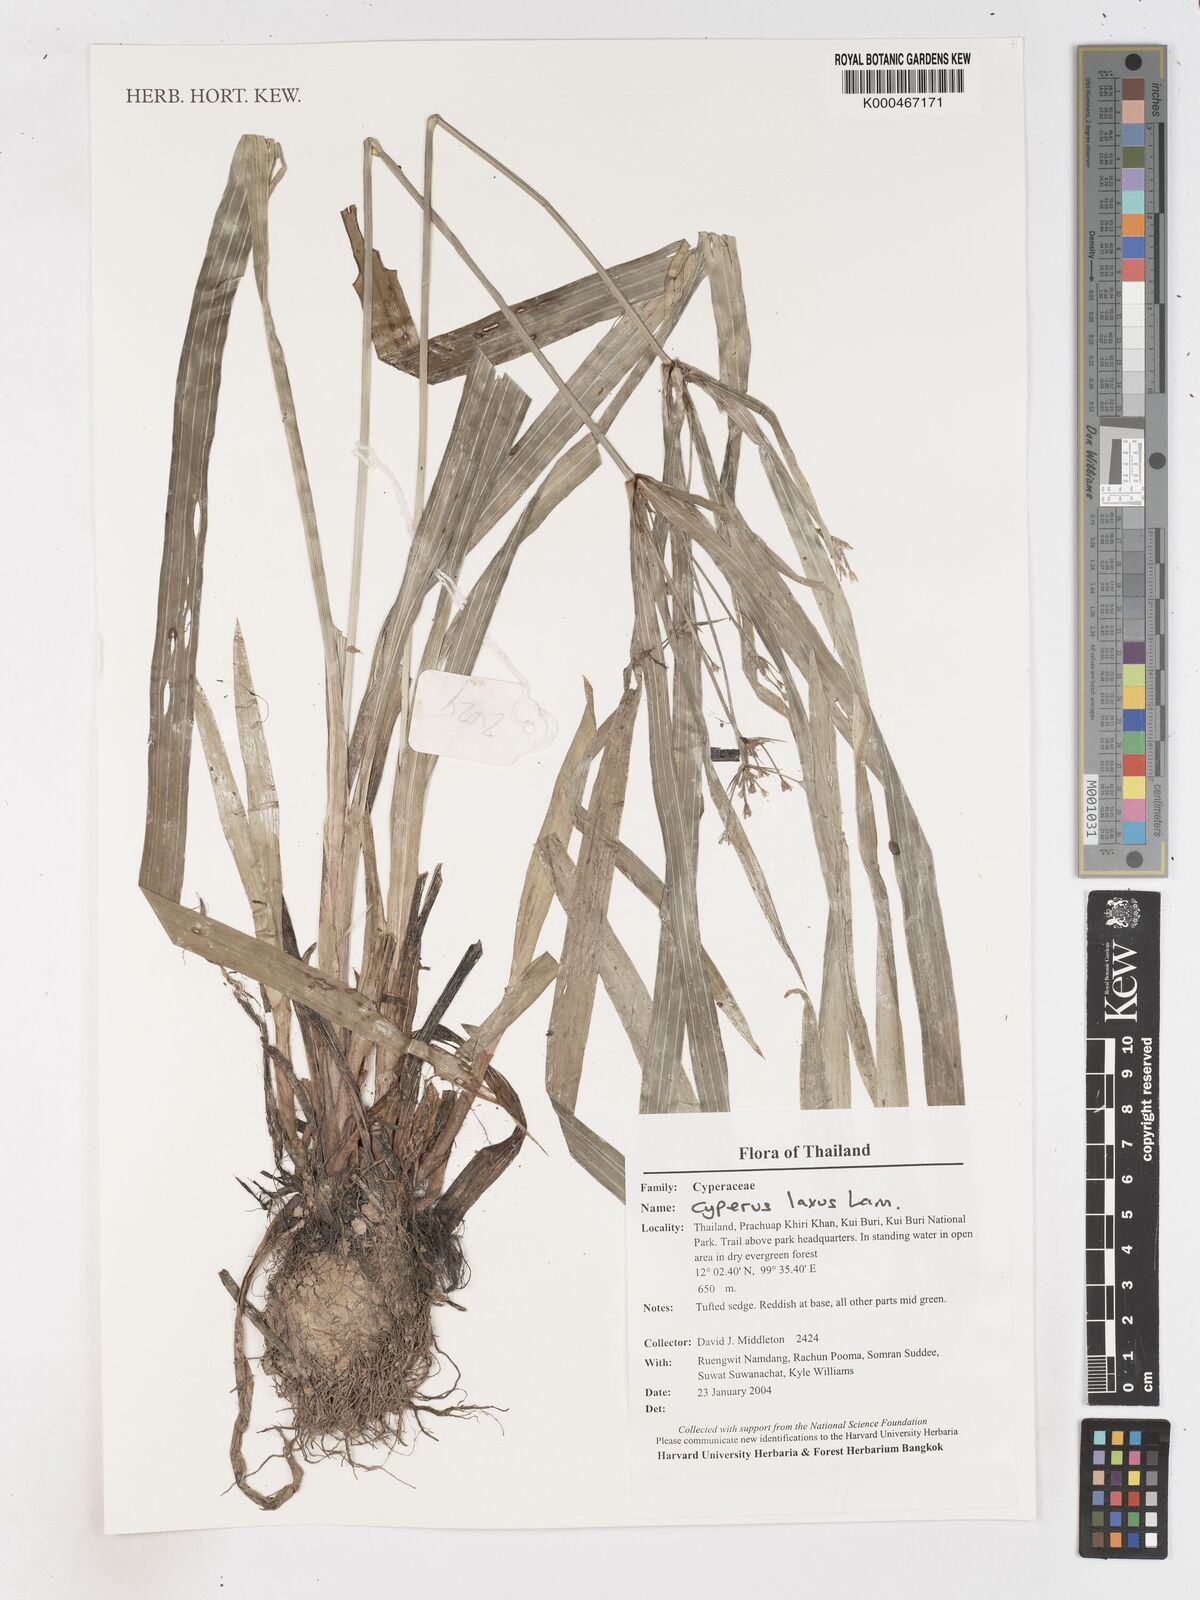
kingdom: Plantae
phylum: Tracheophyta
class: Liliopsida
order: Poales
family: Cyperaceae
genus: Cyperus
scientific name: Cyperus diffusus
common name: Dwarf umbrella grass
